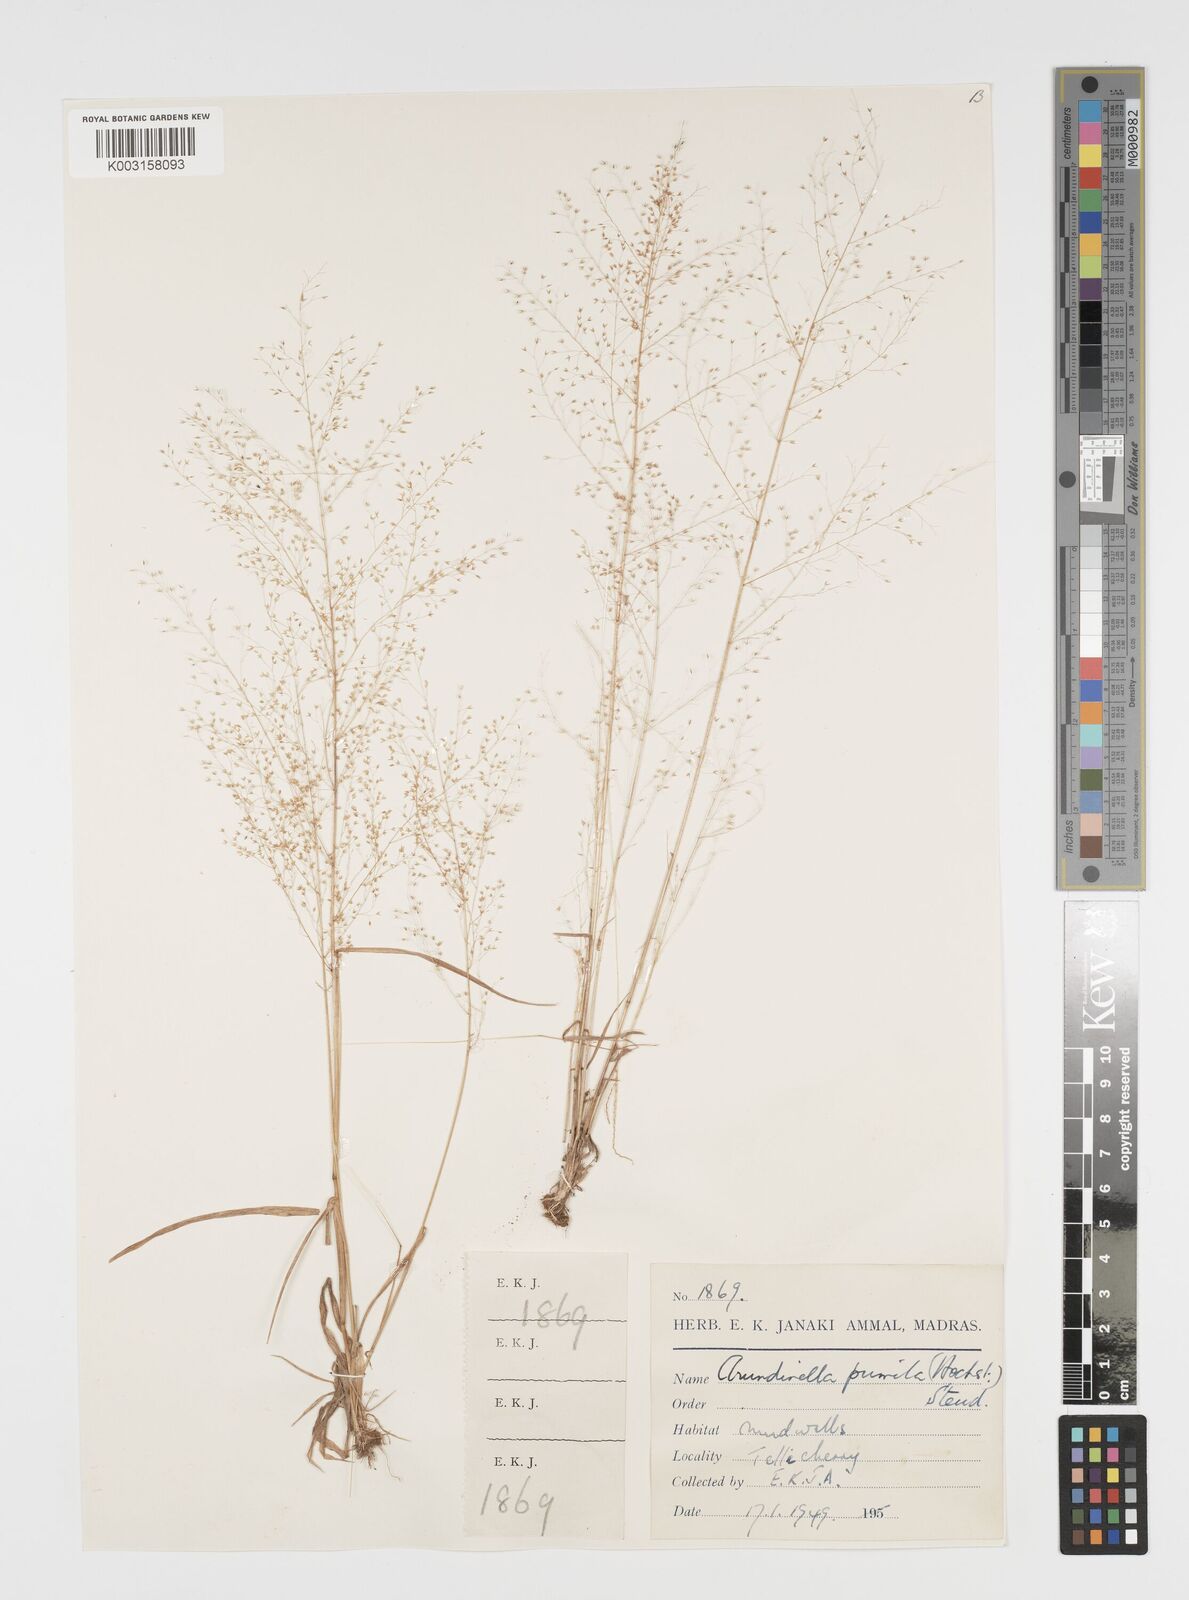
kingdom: Plantae
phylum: Tracheophyta
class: Liliopsida
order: Poales
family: Poaceae
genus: Arundinella
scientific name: Arundinella pumila
